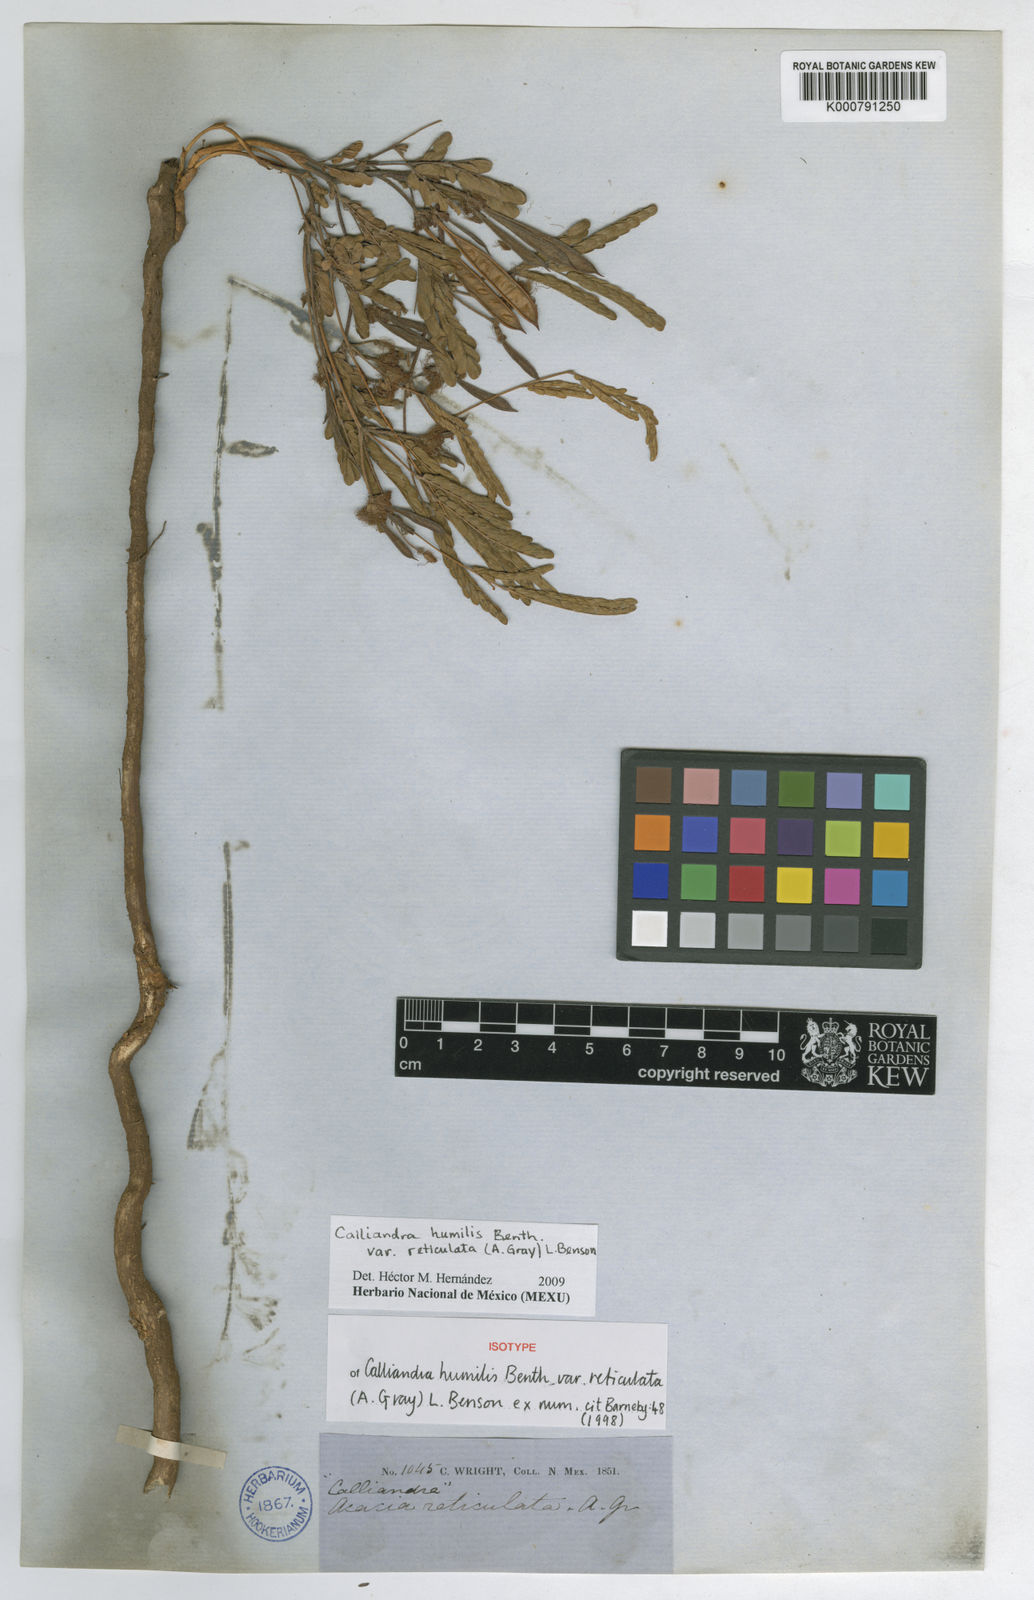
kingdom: Plantae
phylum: Tracheophyta
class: Magnoliopsida
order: Fabales
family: Fabaceae
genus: Calliandra
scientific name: Calliandra humilis
